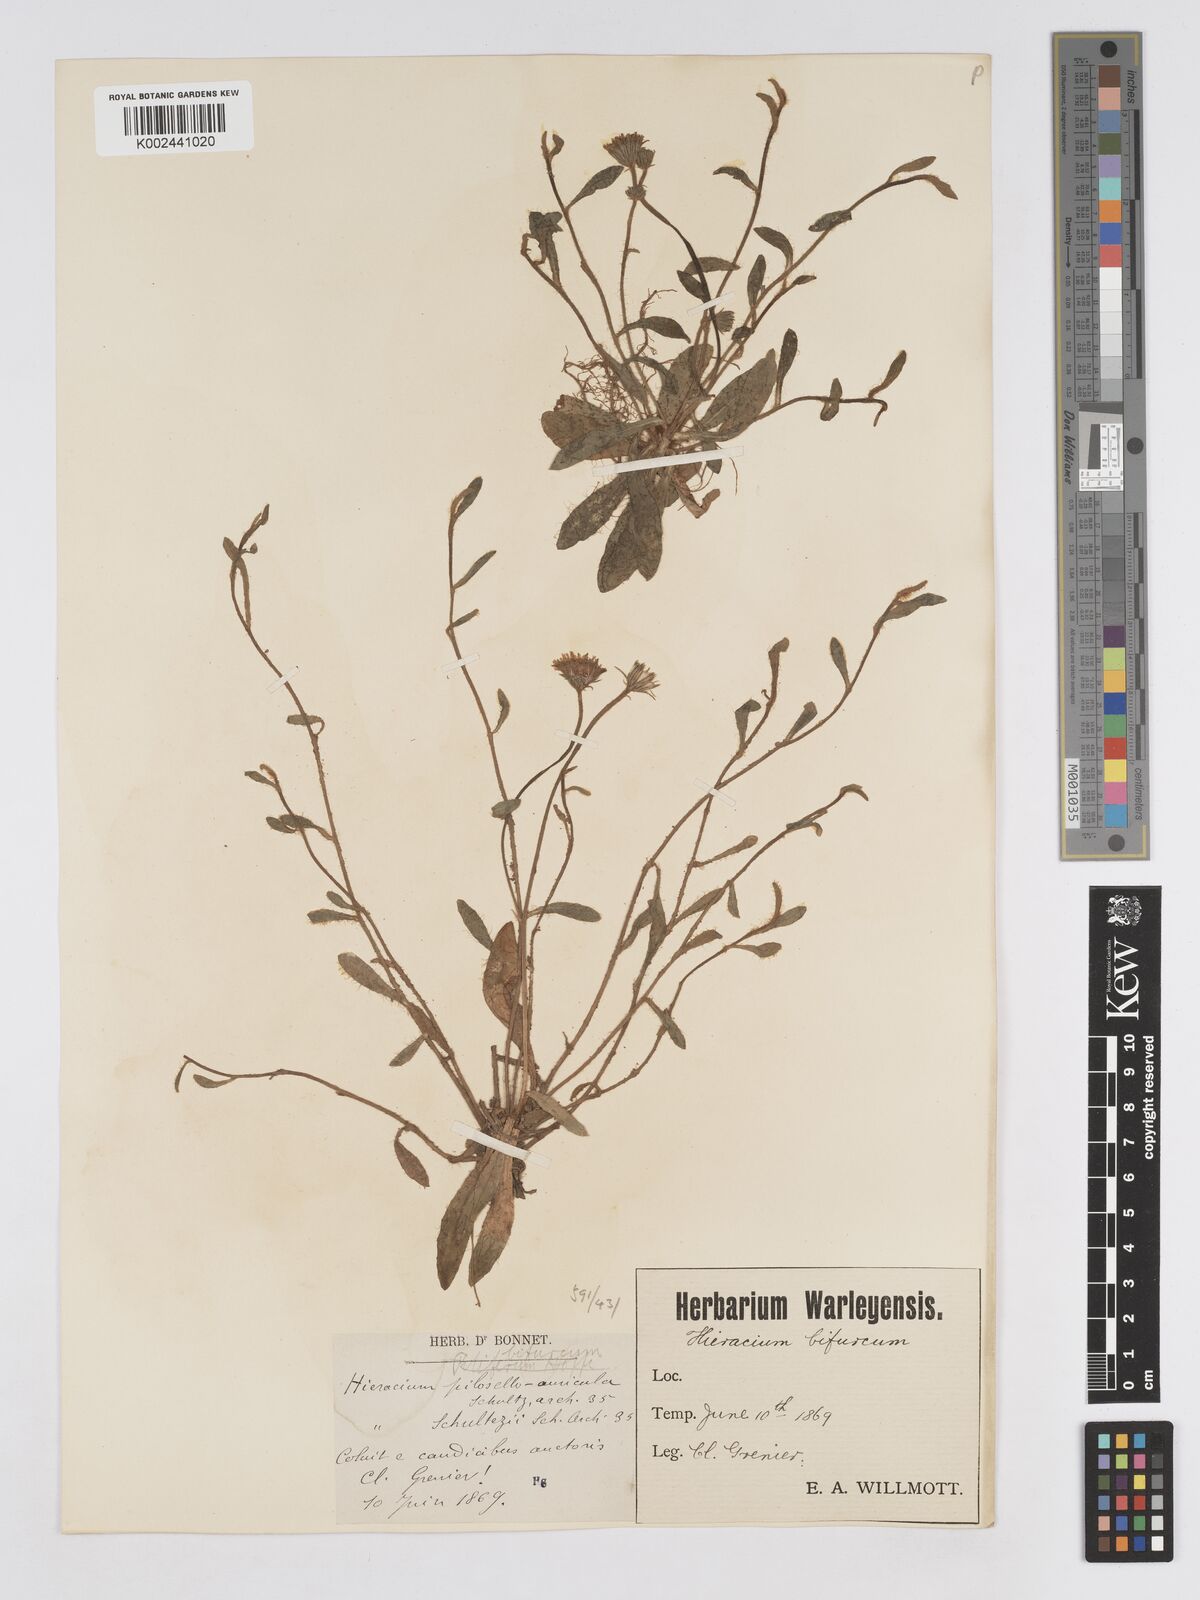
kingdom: Plantae
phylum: Tracheophyta
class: Magnoliopsida
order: Asterales
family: Asteraceae
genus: Pilosella
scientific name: Pilosella schultesii
